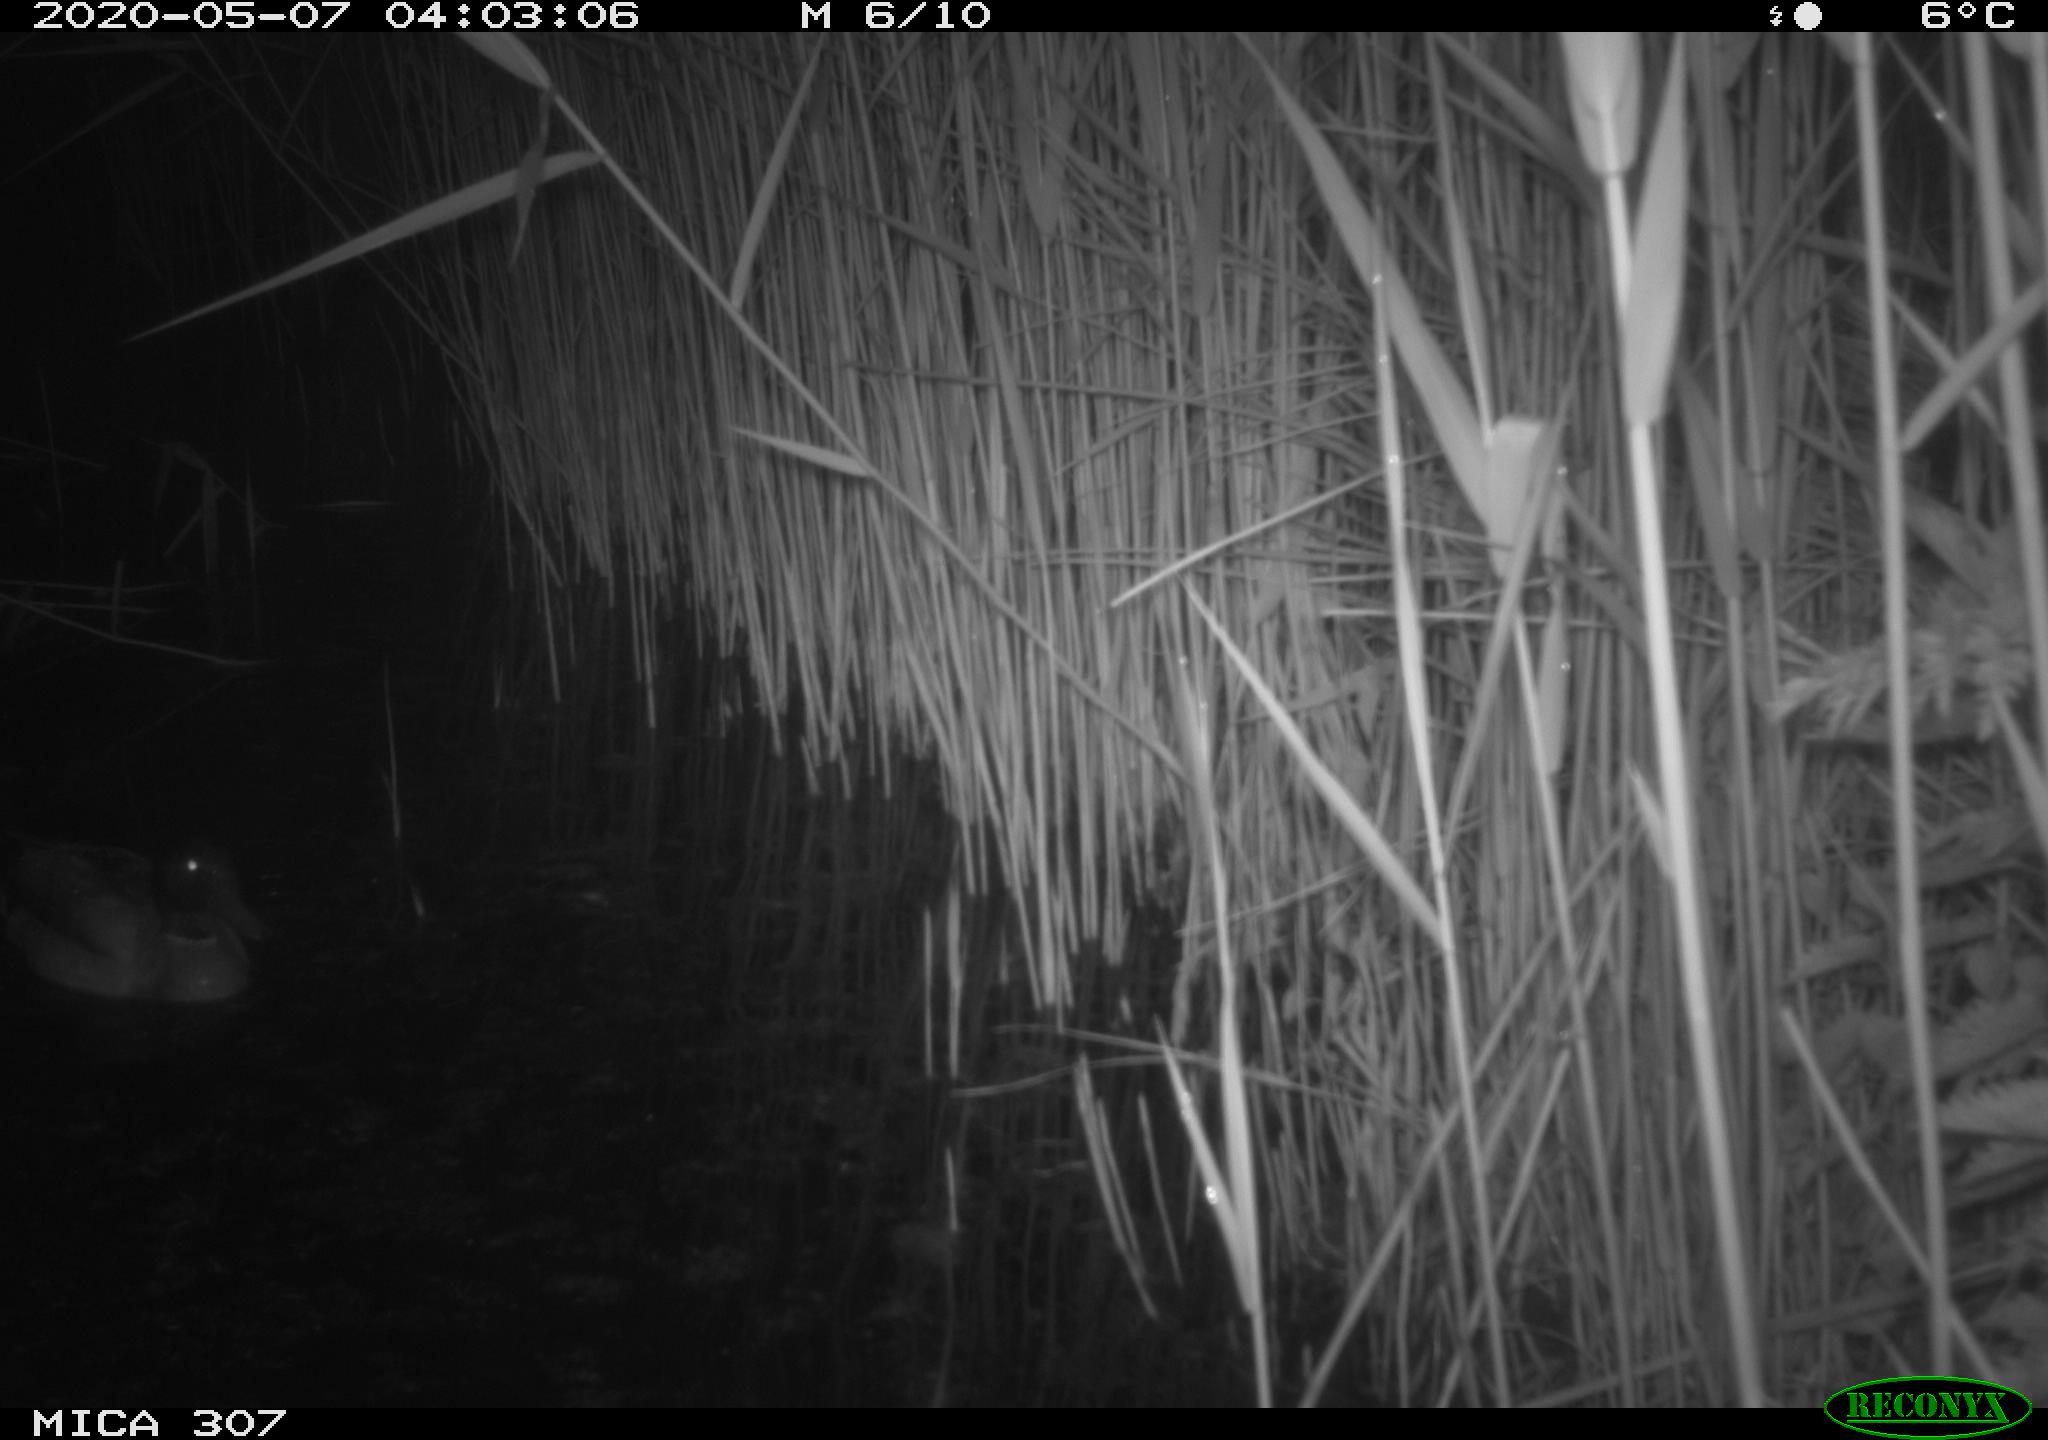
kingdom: Animalia
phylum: Chordata
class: Aves
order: Anseriformes
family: Anatidae
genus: Anas
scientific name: Anas platyrhynchos
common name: Mallard
